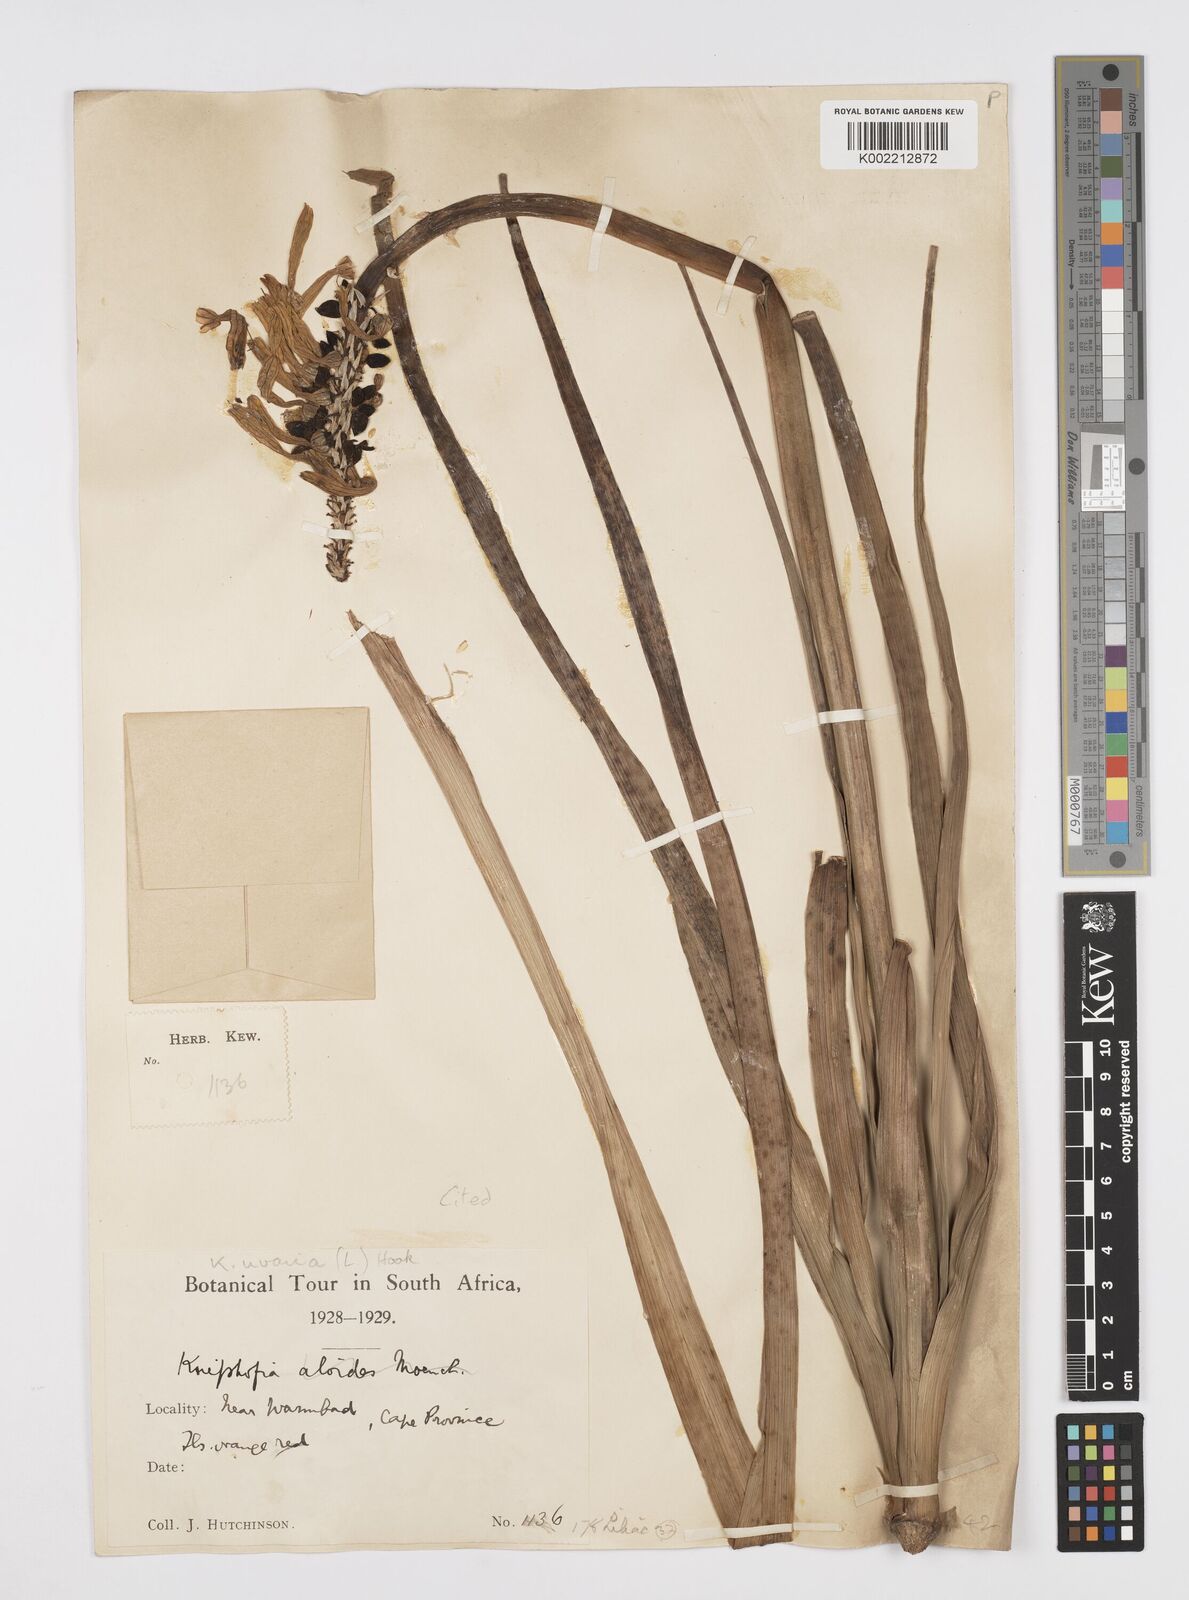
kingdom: Plantae
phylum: Tracheophyta
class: Liliopsida
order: Asparagales
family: Asphodelaceae
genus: Kniphofia
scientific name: Kniphofia uvaria
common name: Red-hot-poker
